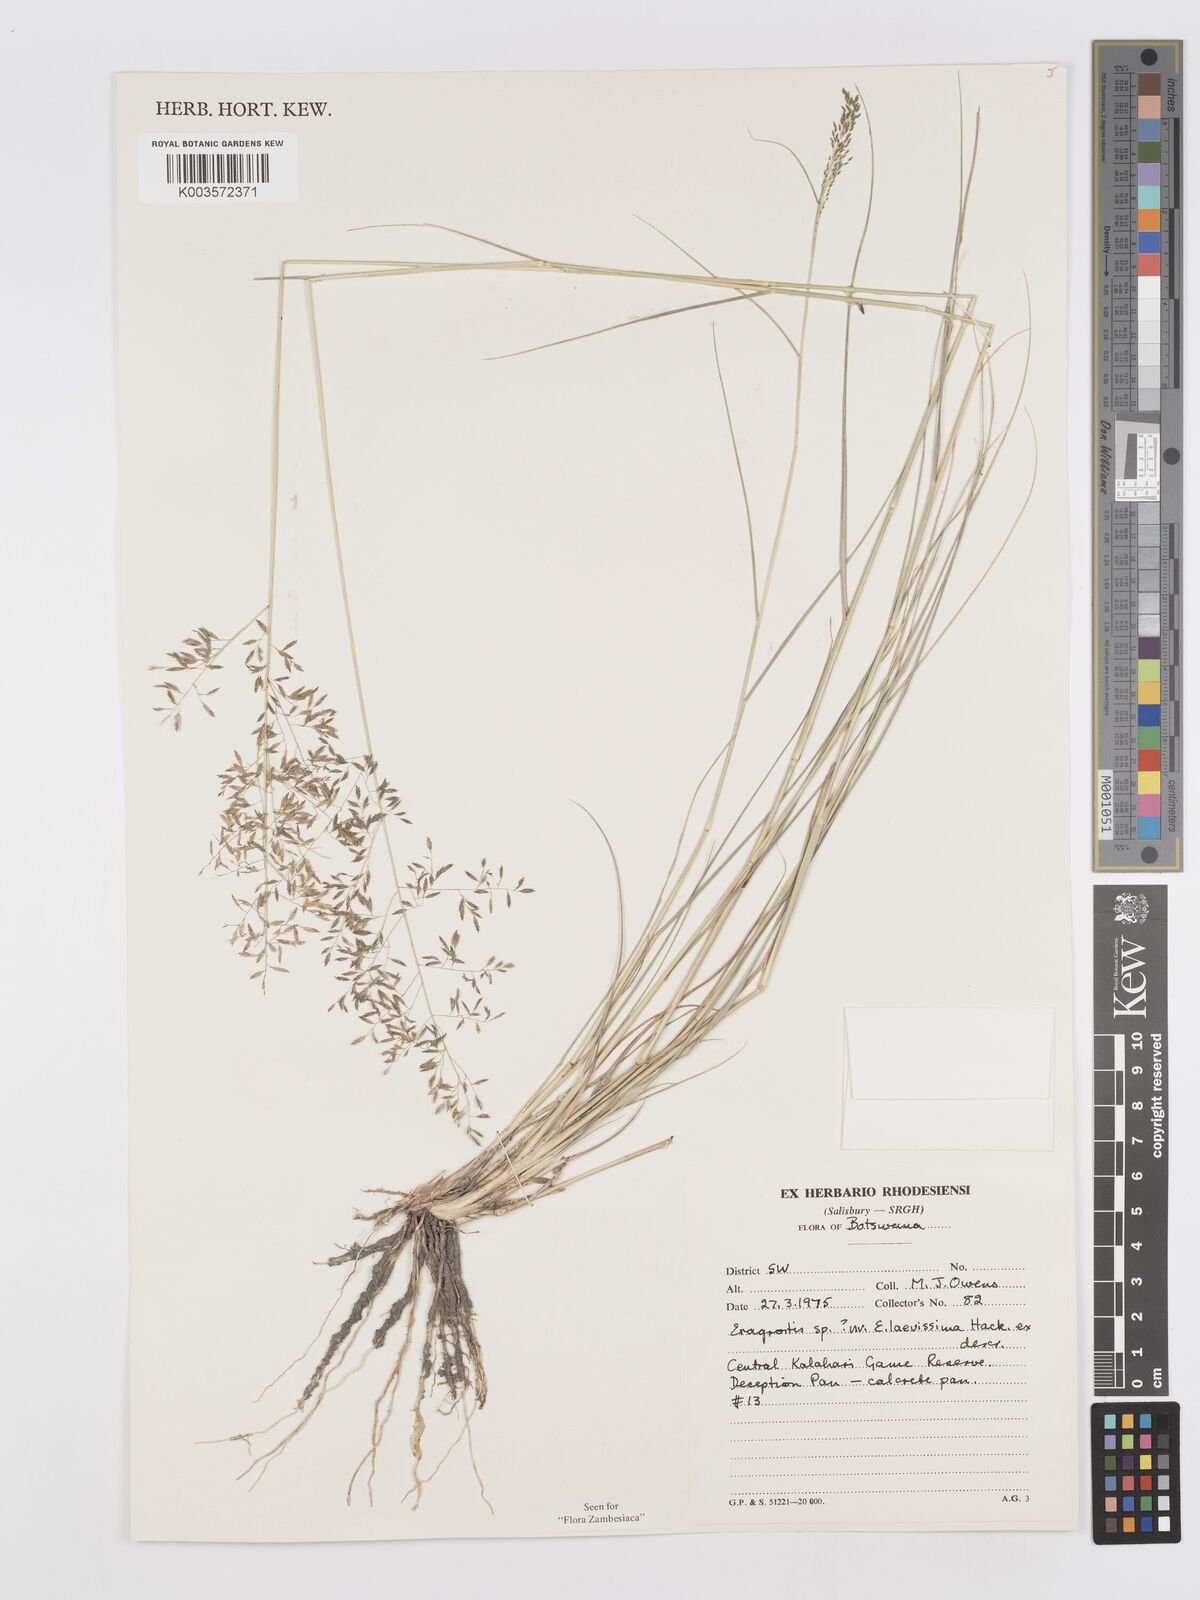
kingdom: Plantae
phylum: Tracheophyta
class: Liliopsida
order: Poales
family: Poaceae
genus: Eragrostis
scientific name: Eragrostis laevissima
